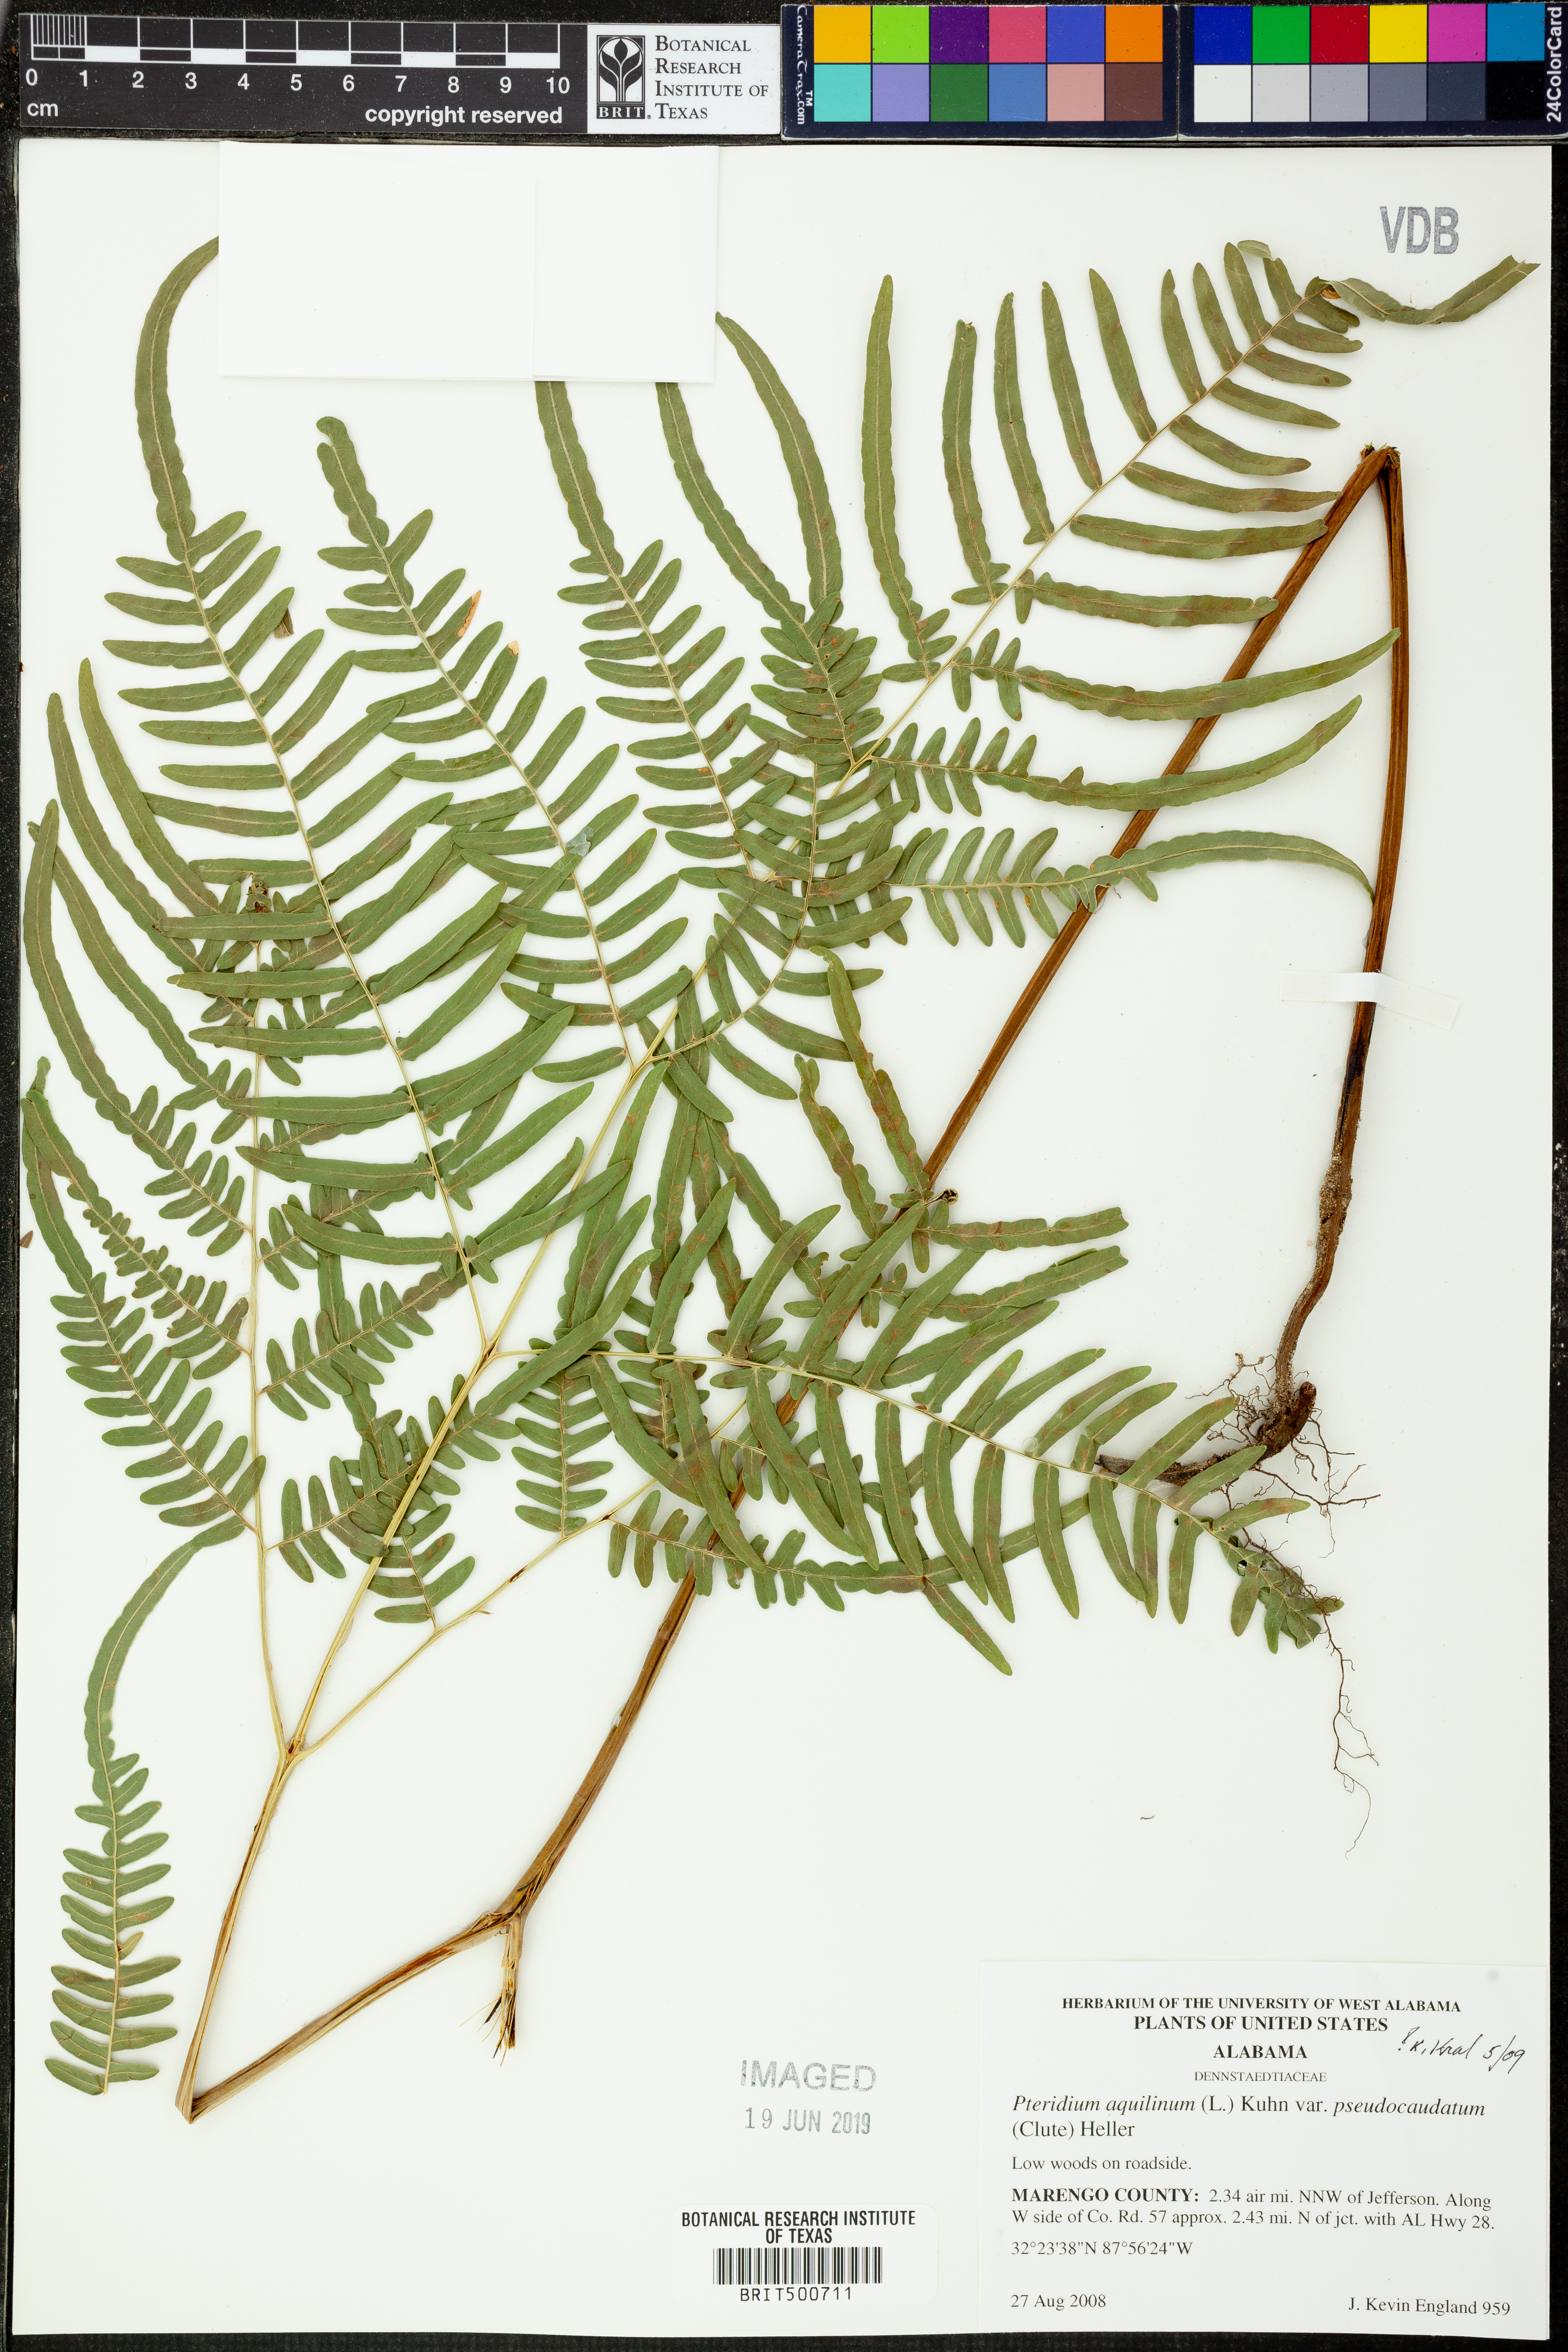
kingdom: Plantae
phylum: Tracheophyta
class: Polypodiopsida
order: Polypodiales
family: Dennstaedtiaceae
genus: Pteridium
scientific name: Pteridium aquilinum
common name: Bracken
